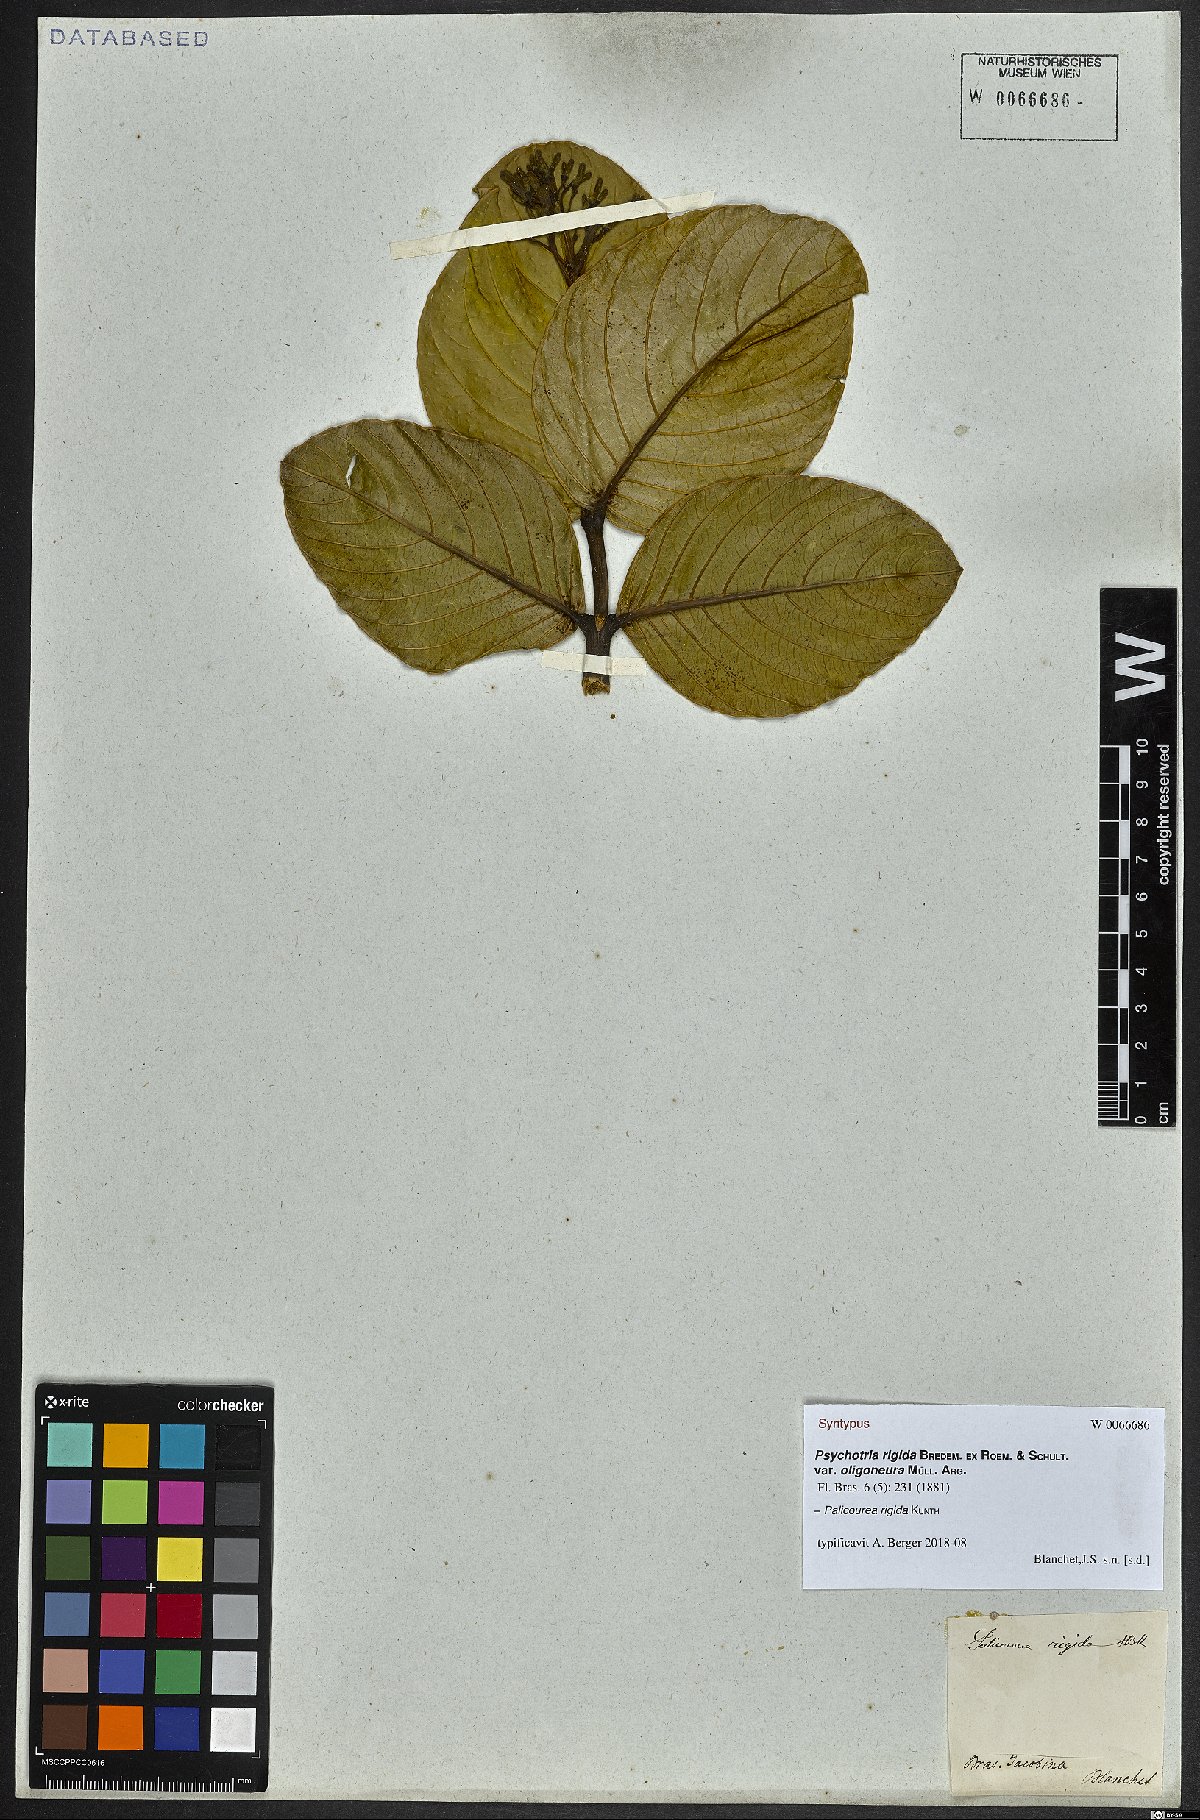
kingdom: Plantae
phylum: Tracheophyta
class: Magnoliopsida
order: Gentianales
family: Rubiaceae
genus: Palicourea
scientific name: Palicourea rigida
